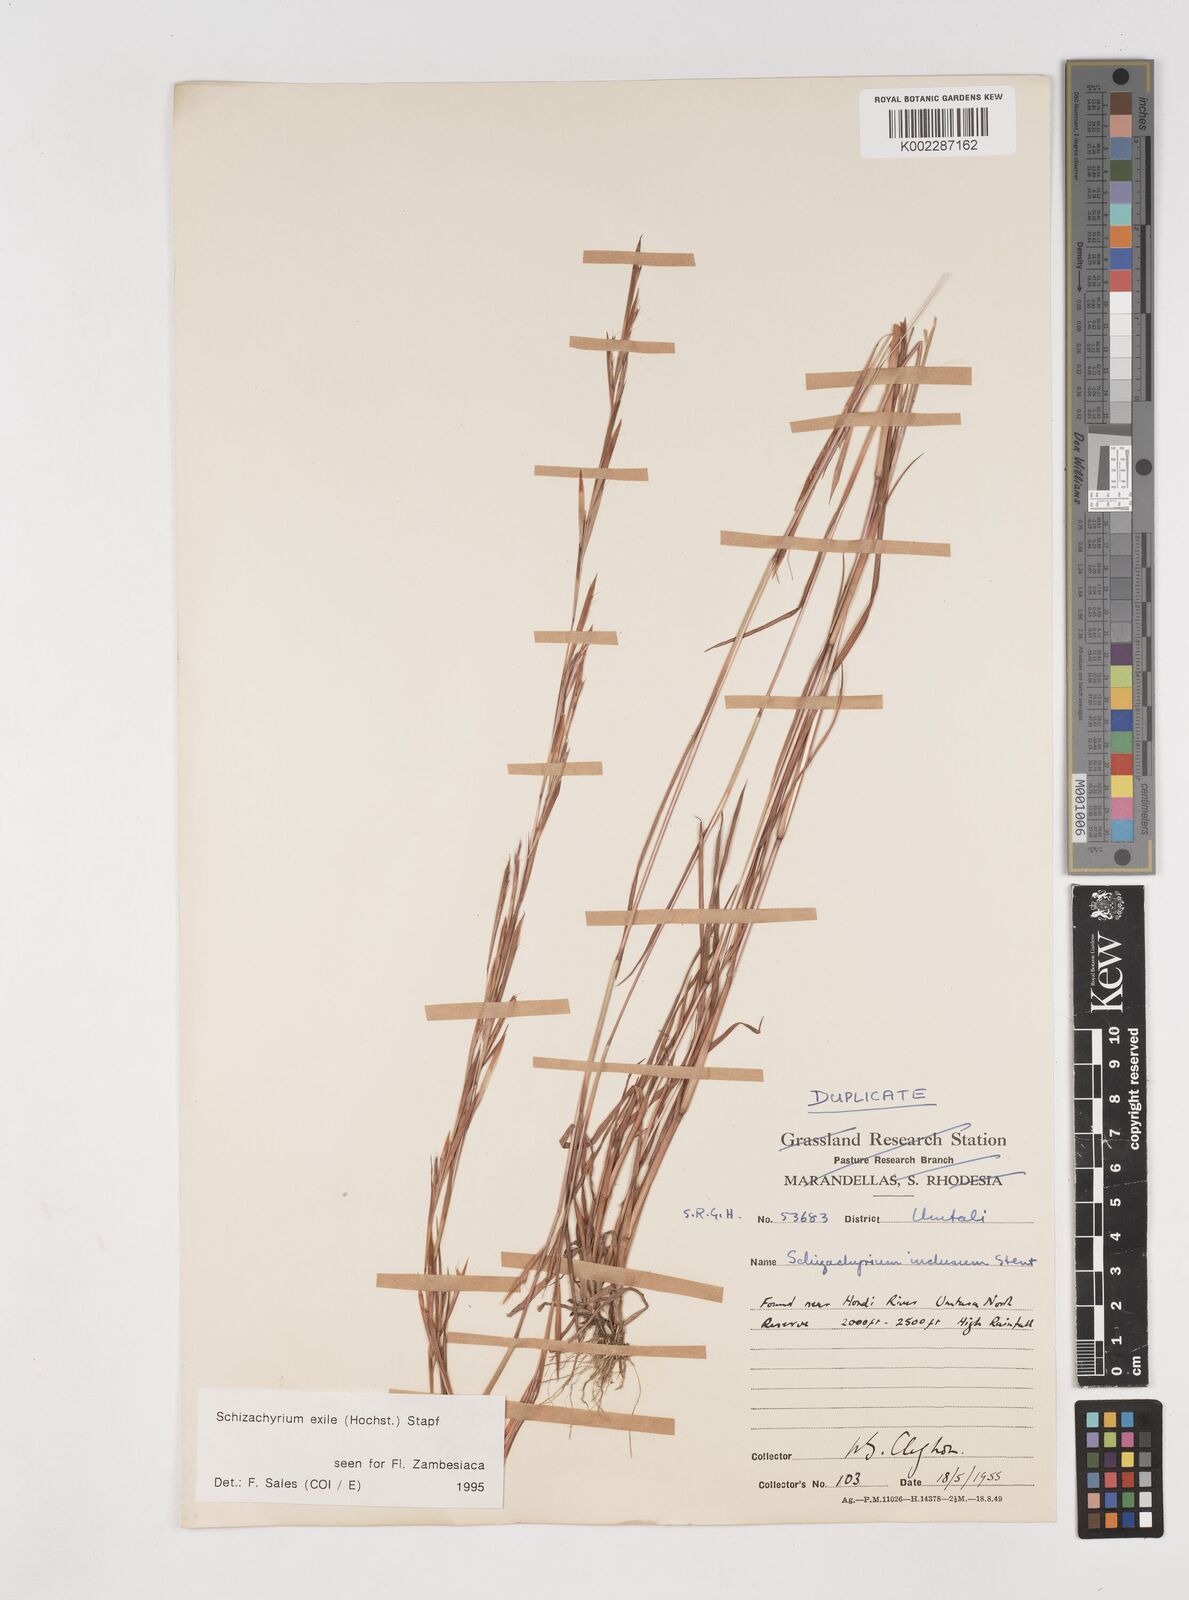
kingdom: Plantae
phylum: Tracheophyta
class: Liliopsida
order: Poales
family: Poaceae
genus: Schizachyrium
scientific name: Schizachyrium exile
